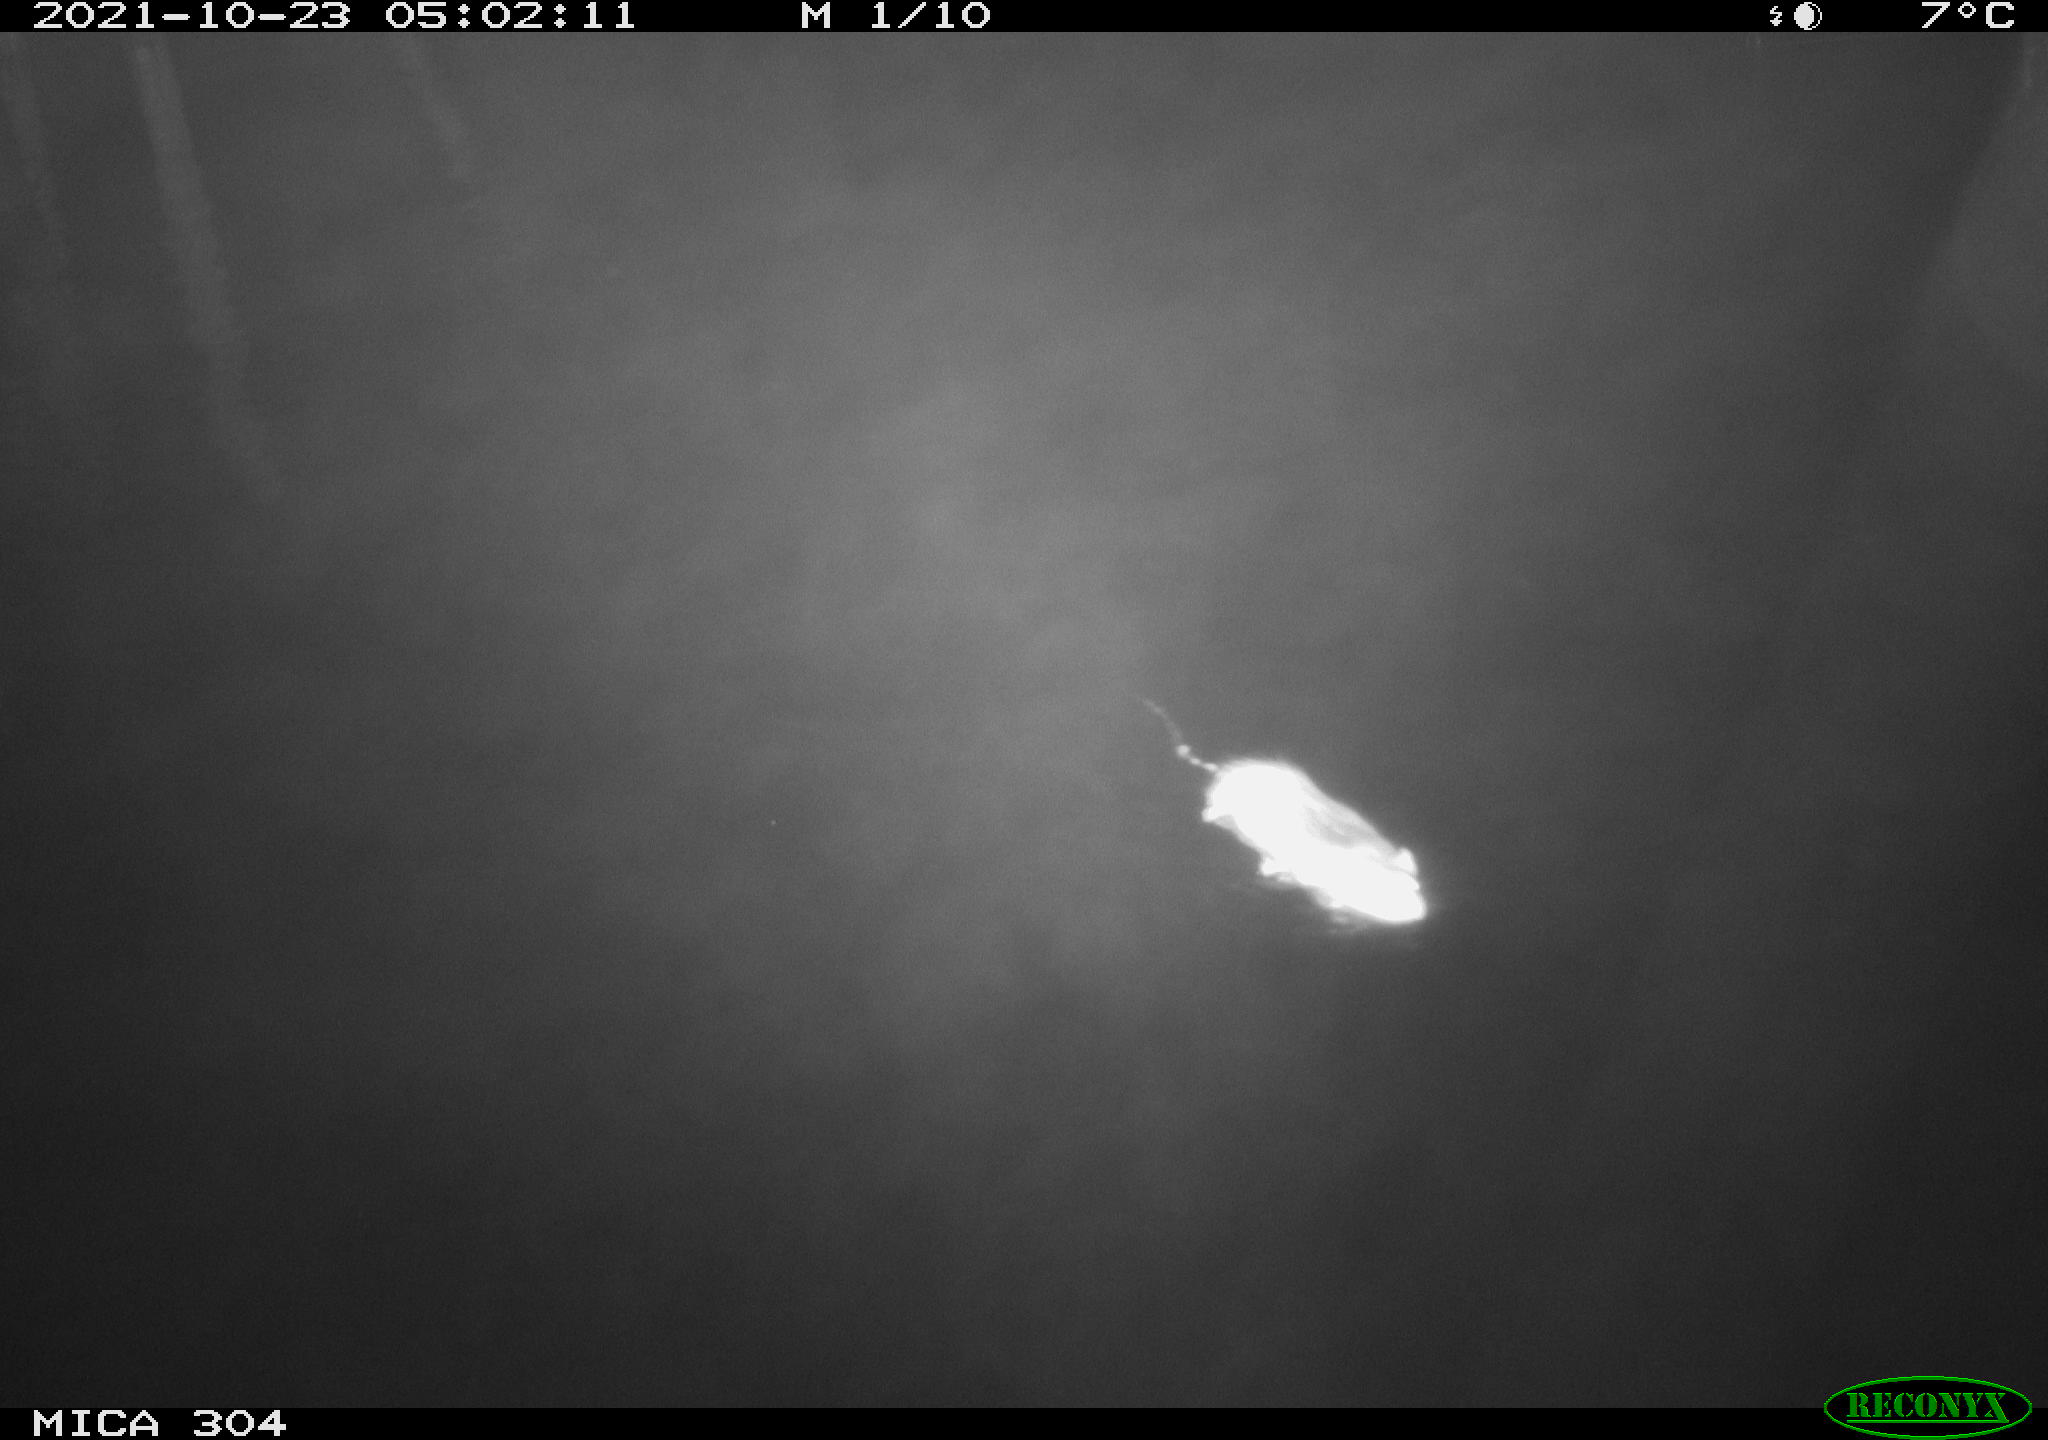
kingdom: Animalia
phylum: Chordata
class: Mammalia
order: Rodentia
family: Muridae
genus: Rattus
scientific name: Rattus norvegicus
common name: Brown rat
